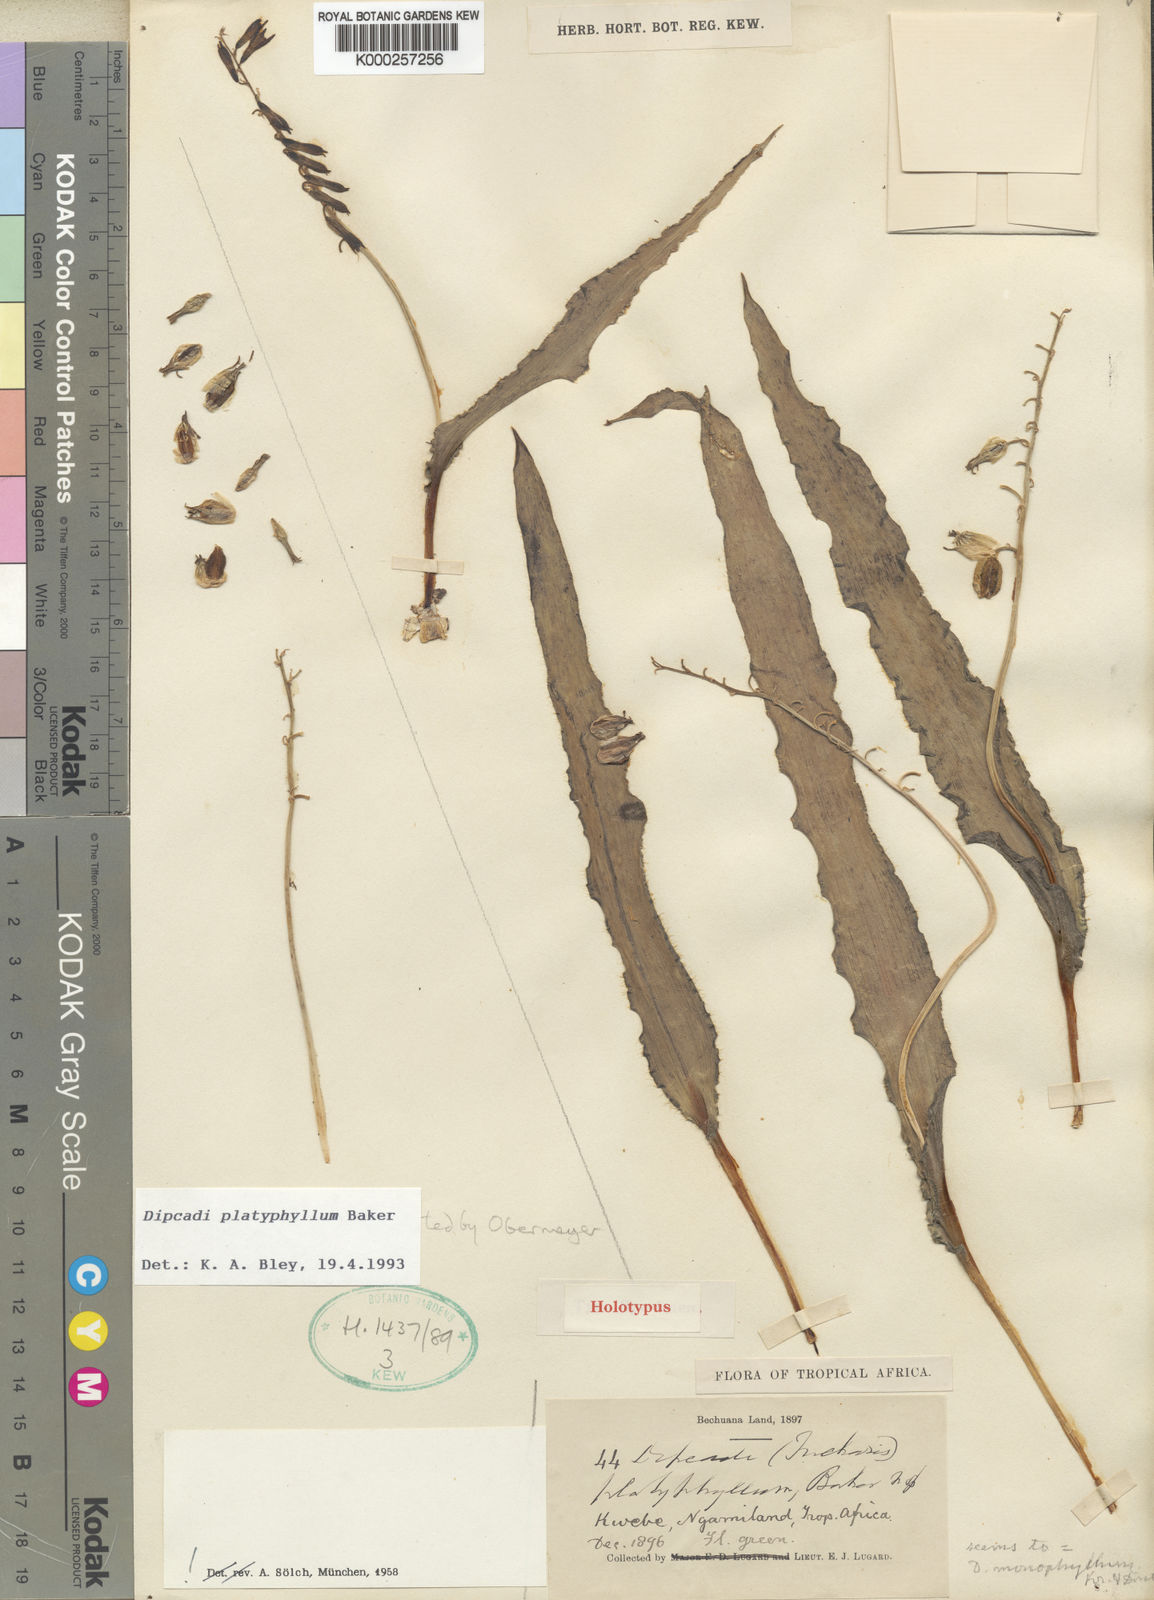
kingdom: Plantae
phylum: Tracheophyta
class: Liliopsida
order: Asparagales
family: Asparagaceae
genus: Dipcadi
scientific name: Dipcadi platyphyllum
